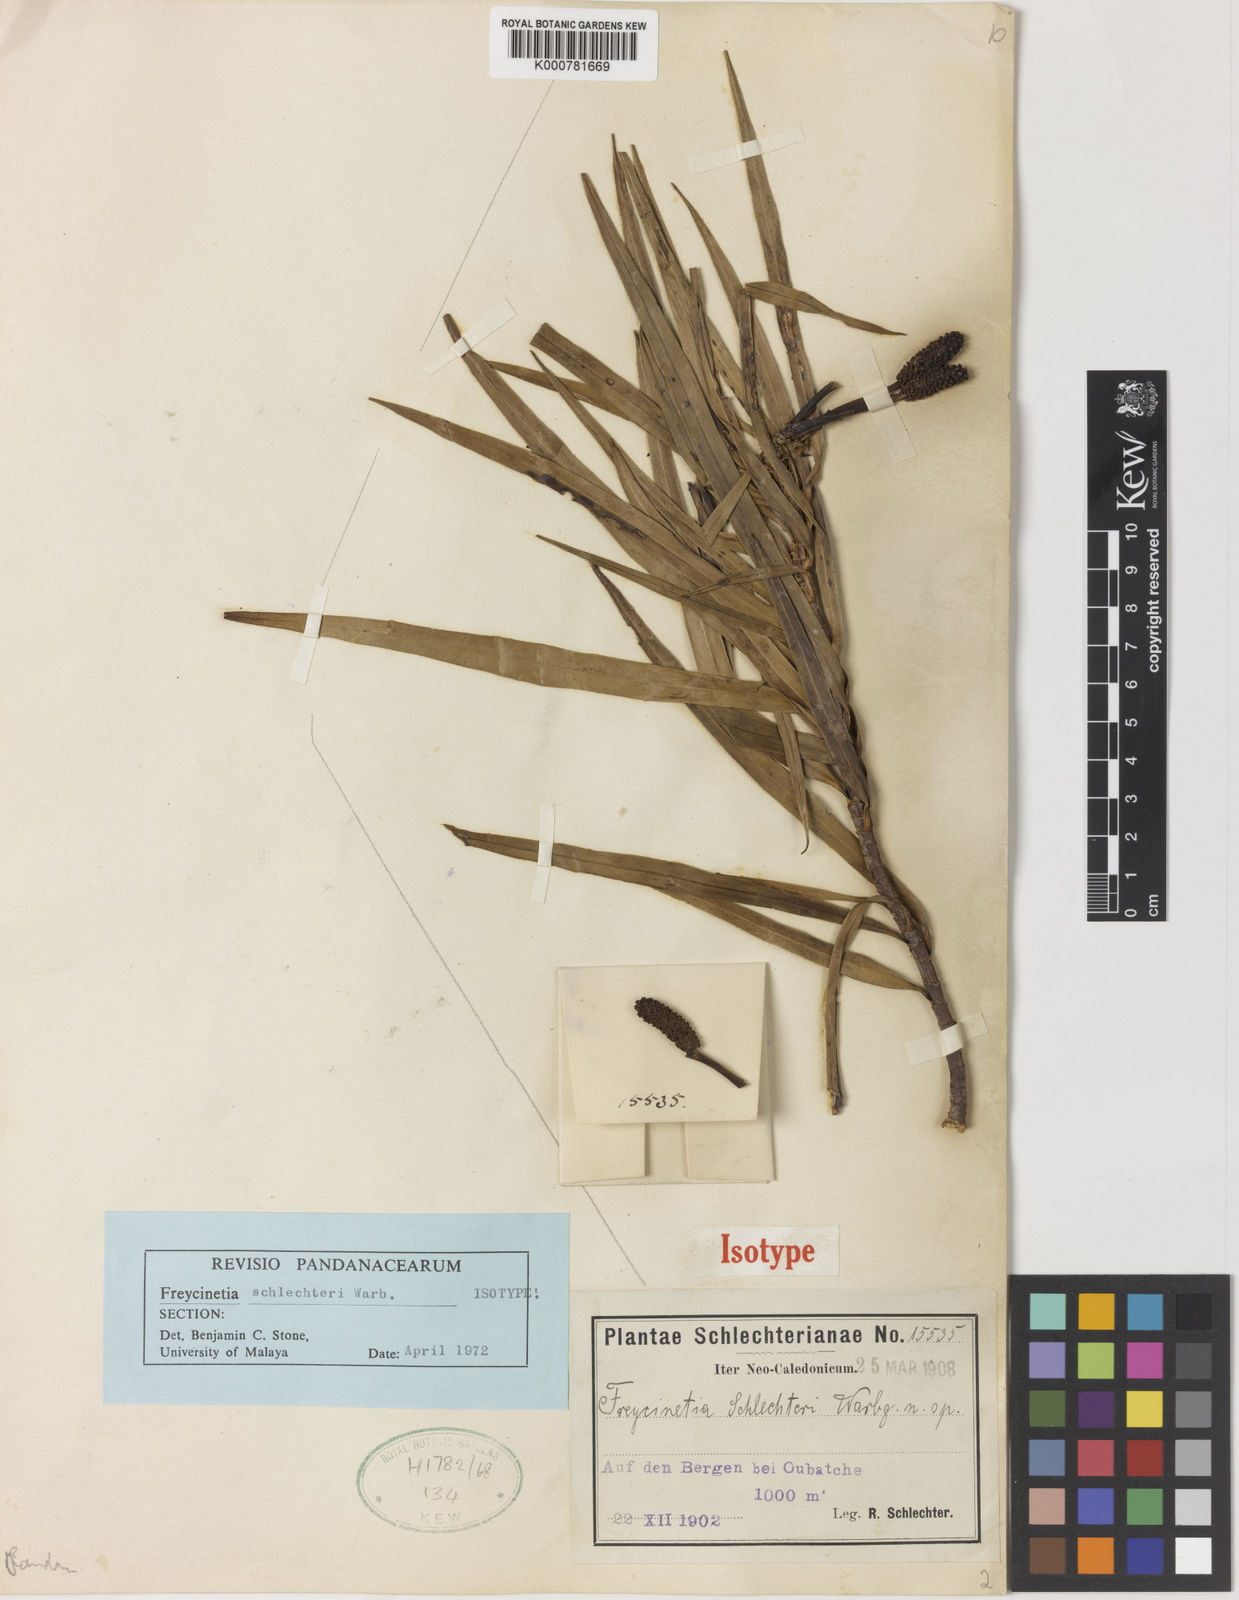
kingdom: Plantae
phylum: Tracheophyta
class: Liliopsida
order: Pandanales
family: Pandanaceae
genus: Freycinetia
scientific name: Freycinetia schlechteri
